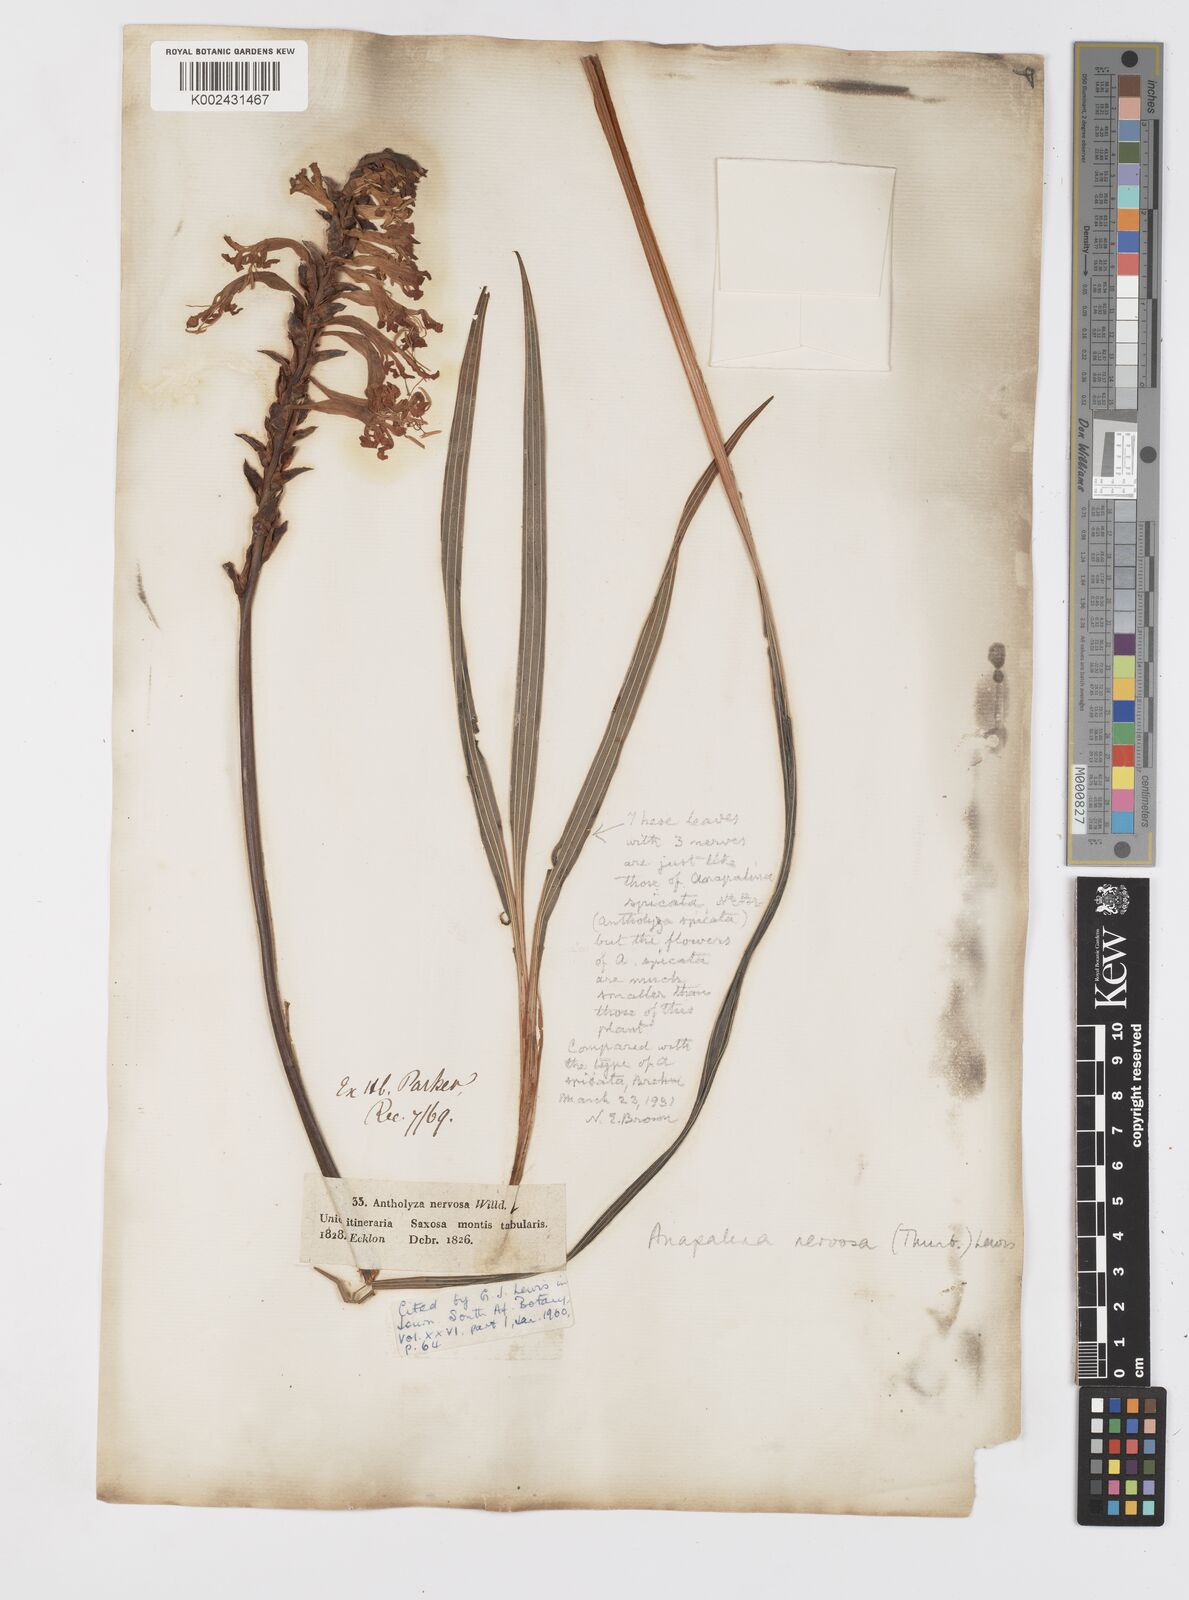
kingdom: Plantae
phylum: Tracheophyta
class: Liliopsida
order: Asparagales
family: Iridaceae
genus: Tritoniopsis
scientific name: Tritoniopsis nervosa
